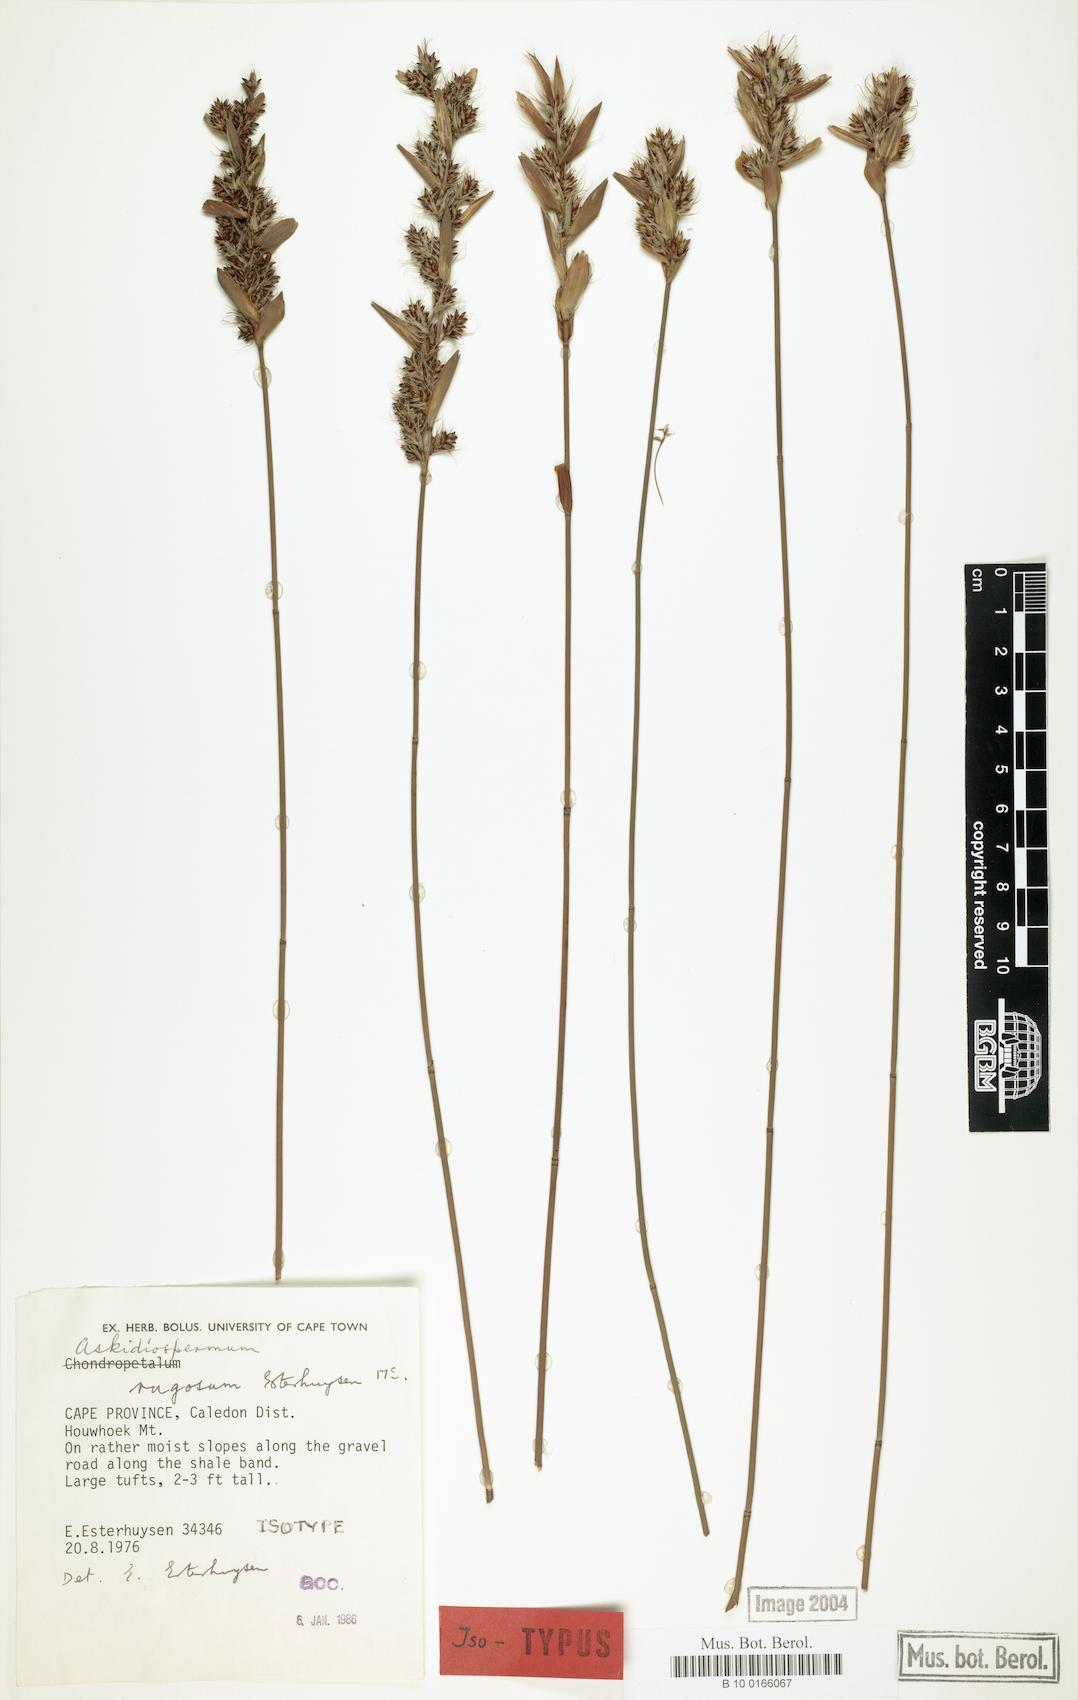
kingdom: Plantae
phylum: Tracheophyta
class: Liliopsida
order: Poales
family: Restionaceae
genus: Askidiosperma
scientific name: Askidiosperma rugosum
